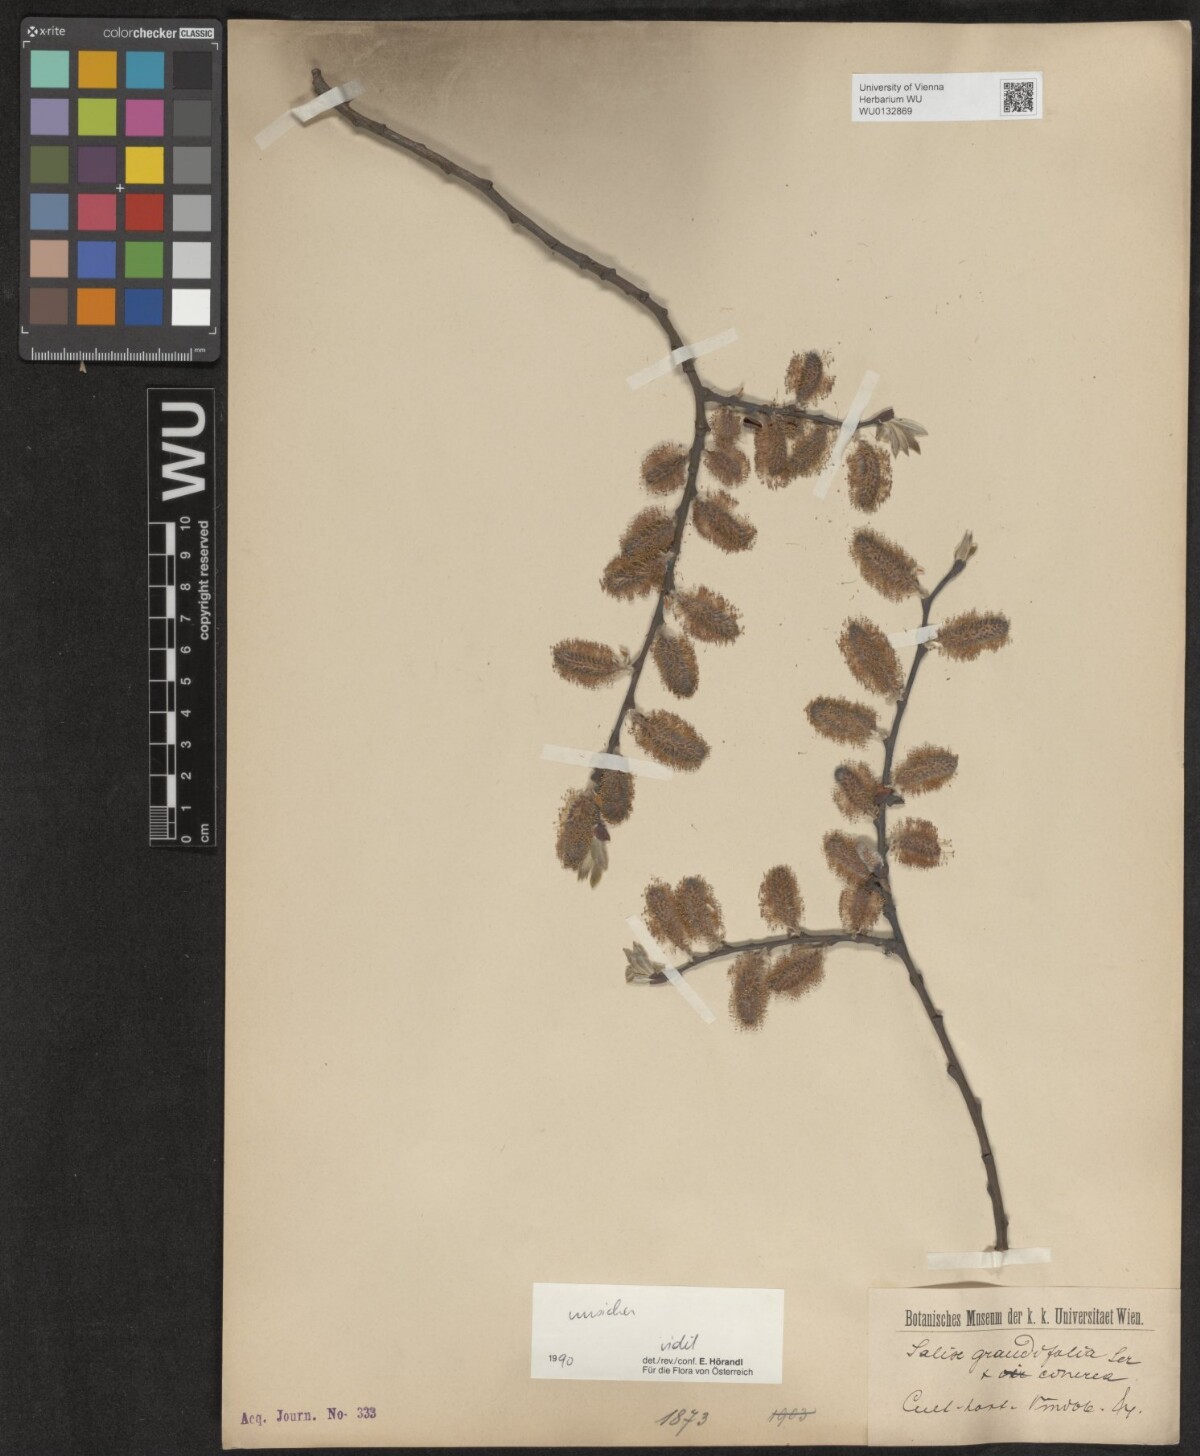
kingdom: Plantae
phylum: Tracheophyta
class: Magnoliopsida
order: Malpighiales
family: Salicaceae
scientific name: Salicaceae
